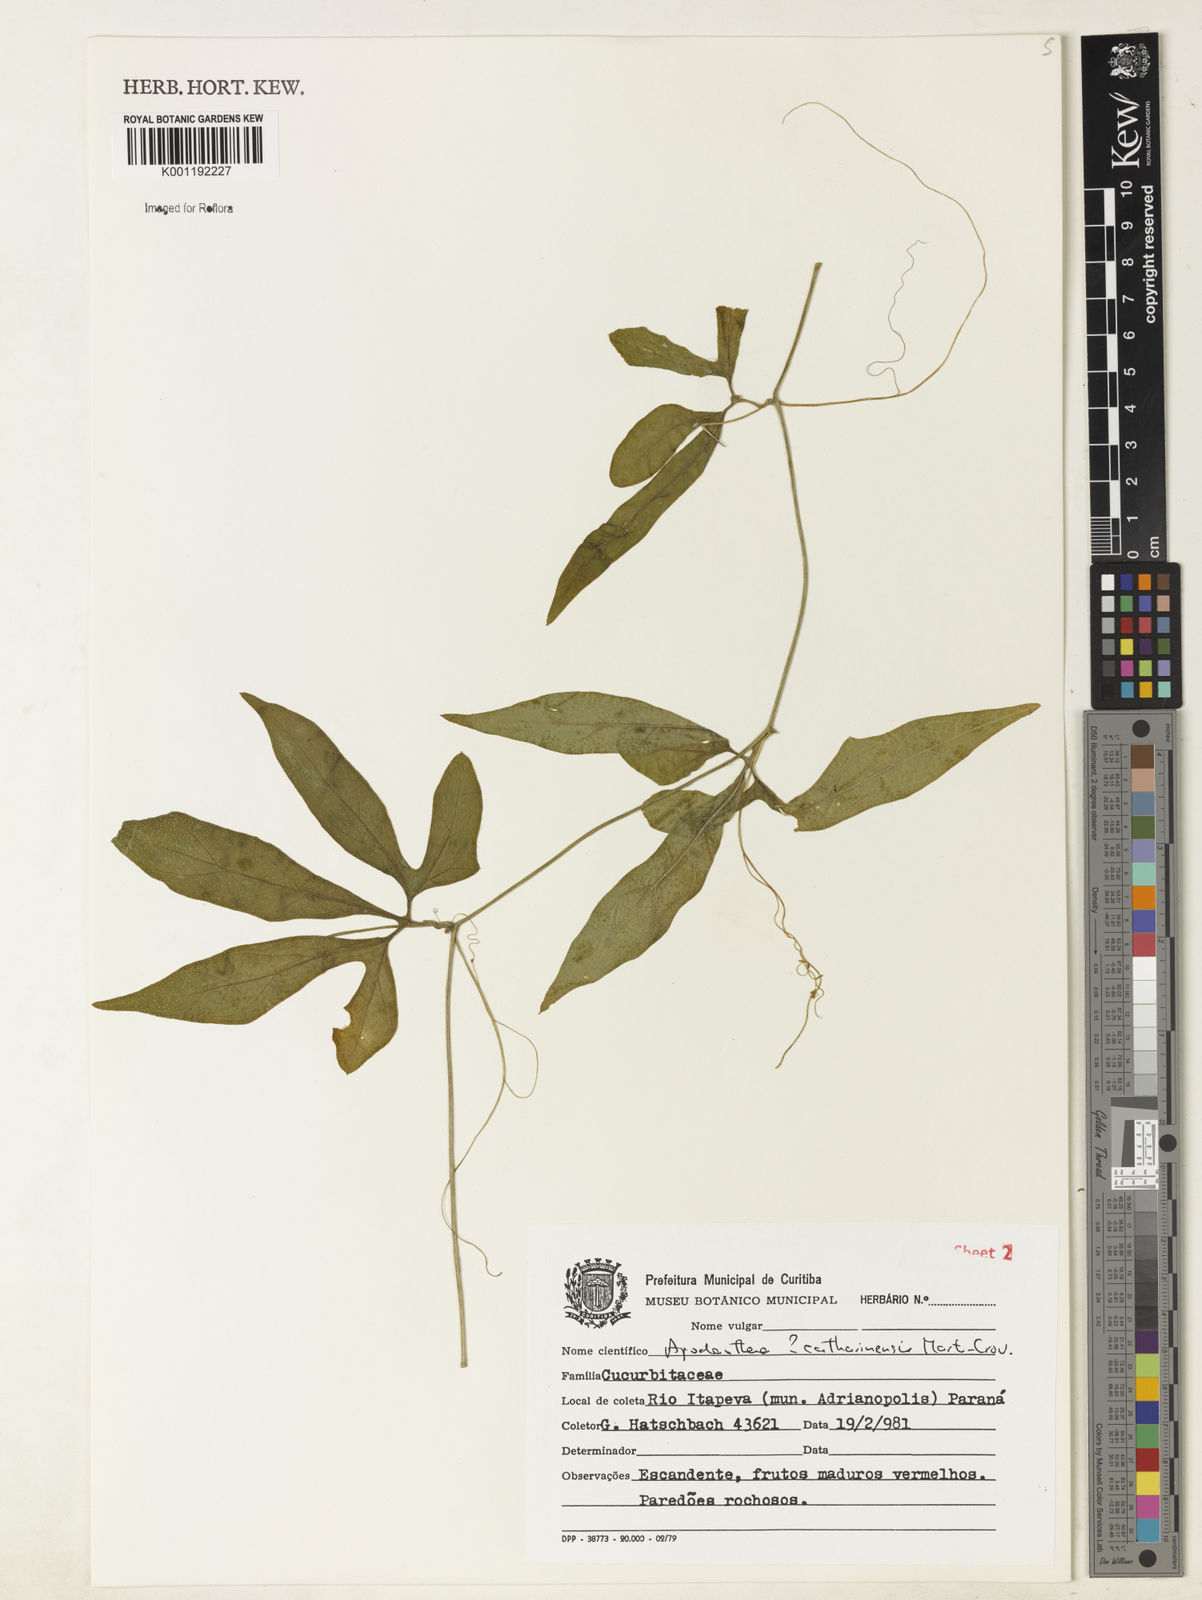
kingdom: Plantae
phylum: Tracheophyta
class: Magnoliopsida
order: Cucurbitales
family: Cucurbitaceae
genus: Apodanthera
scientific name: Apodanthera catharinensis
